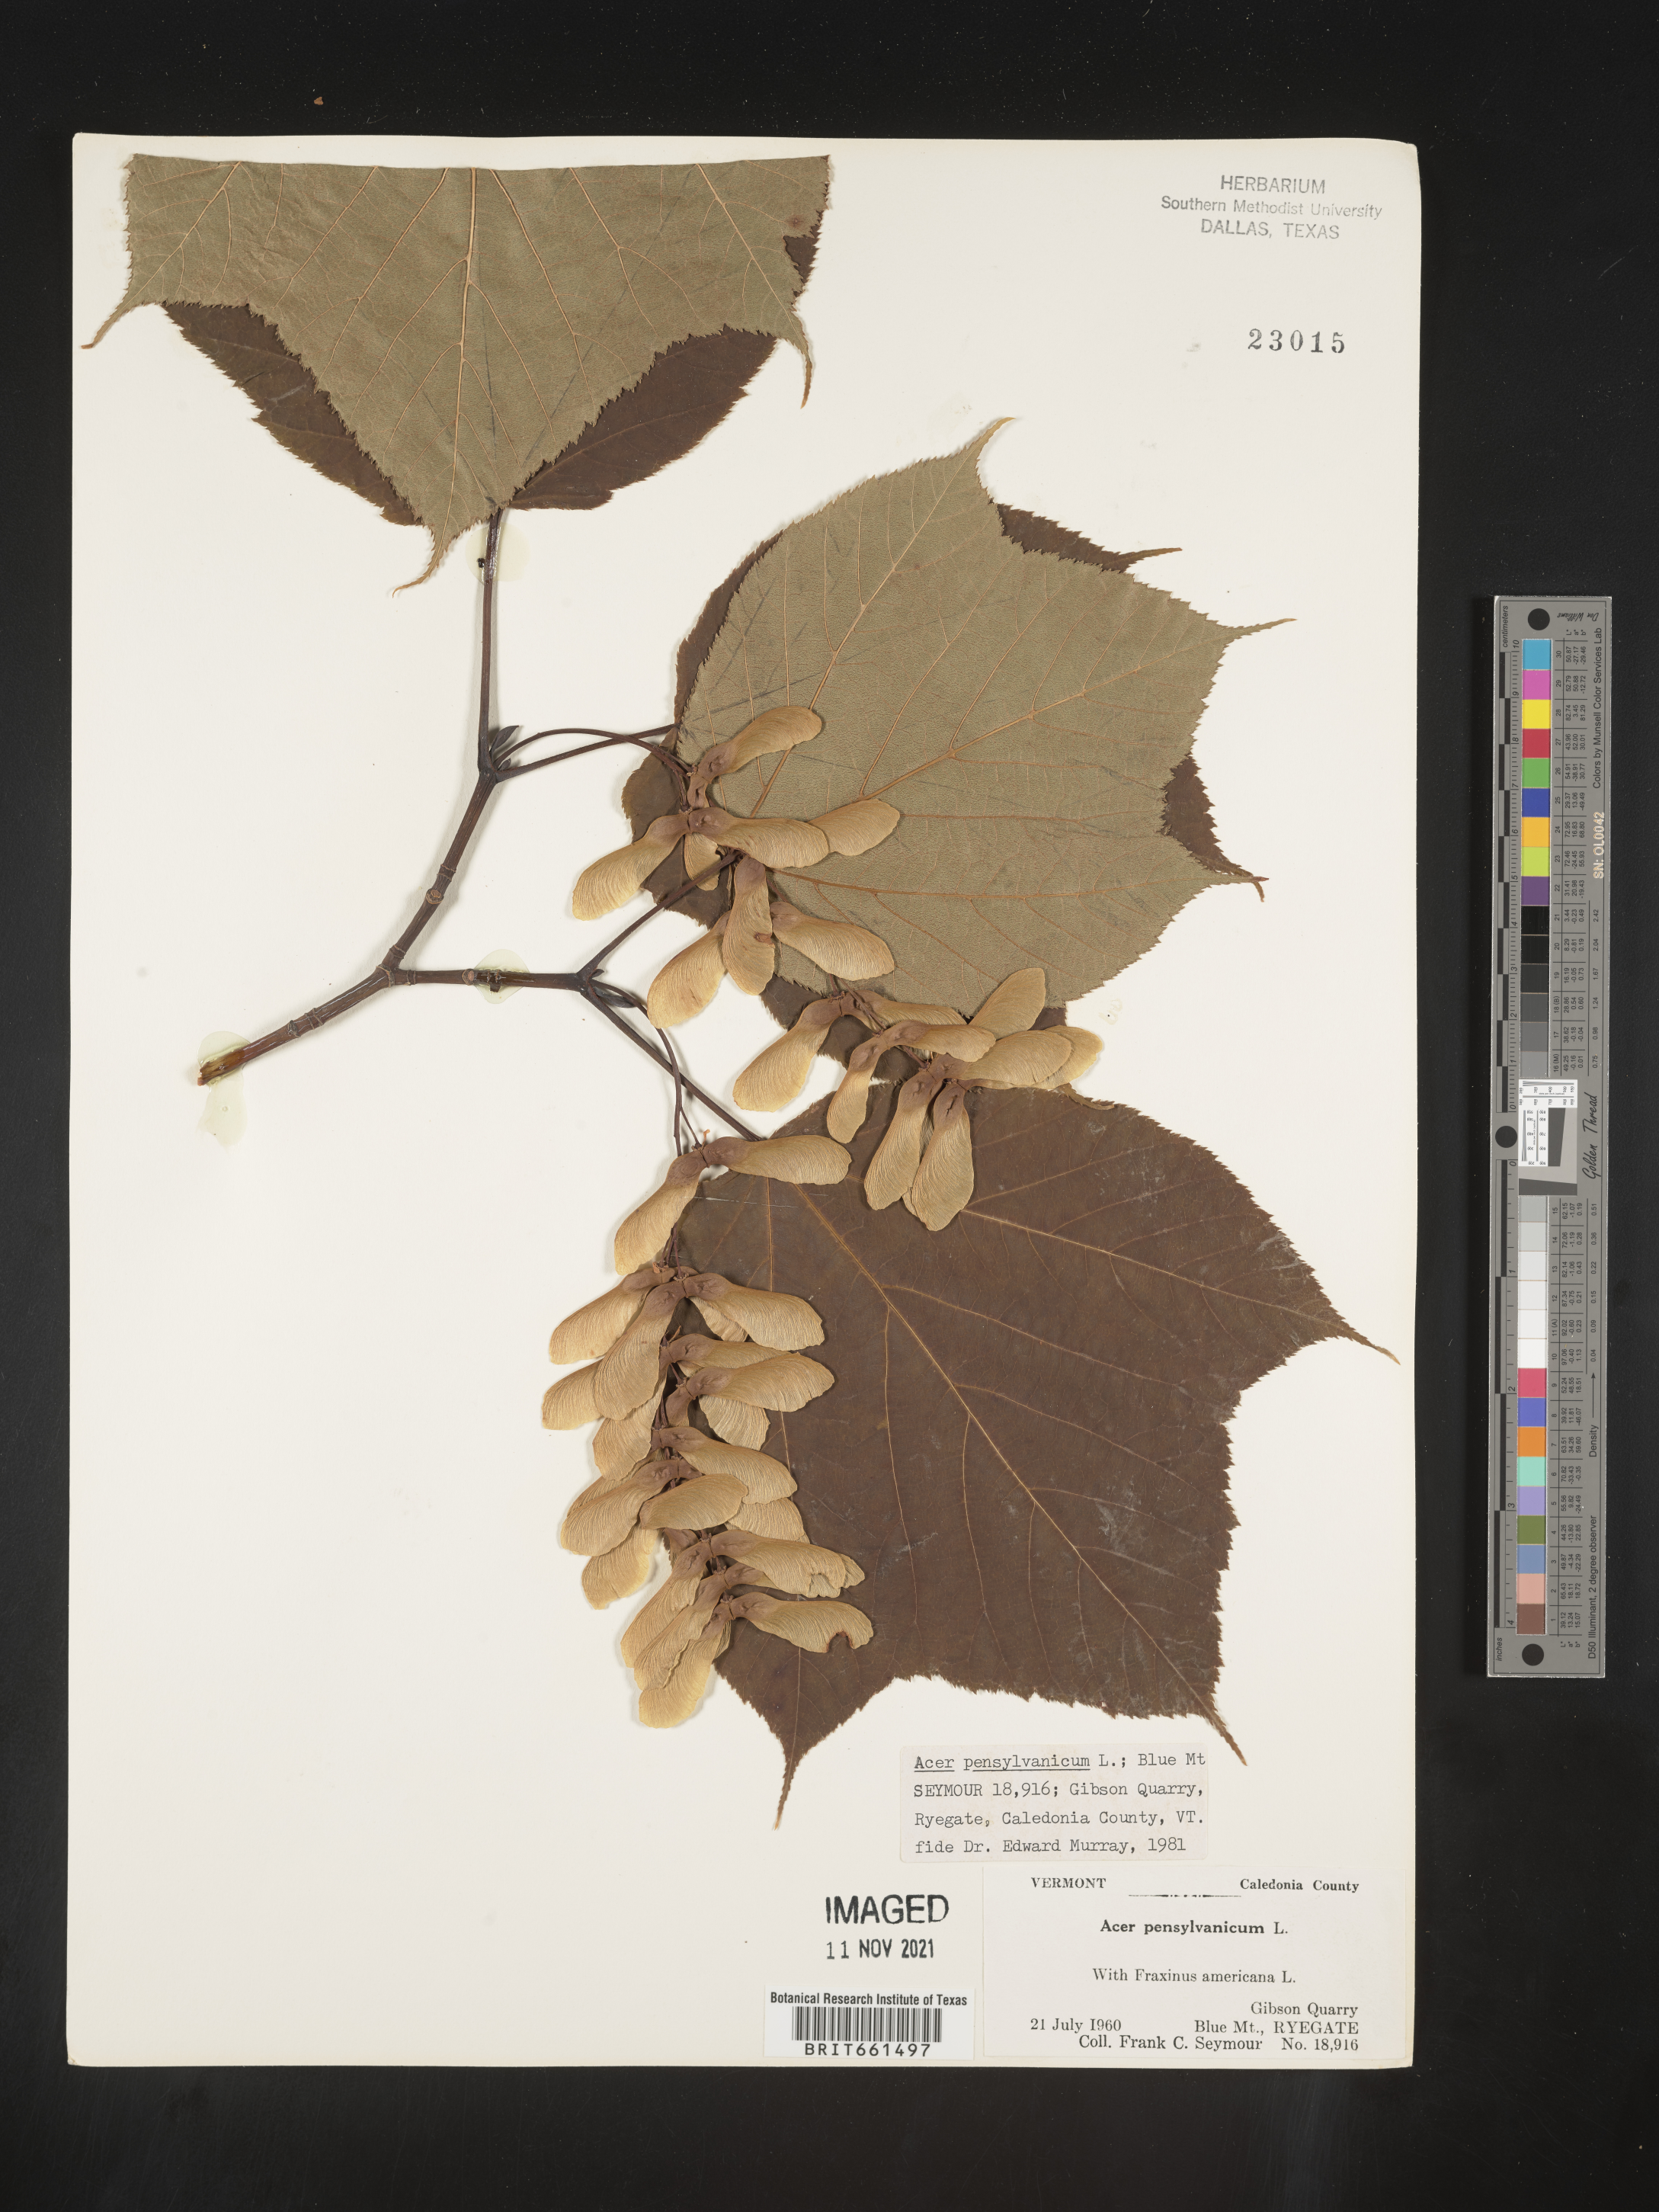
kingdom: Plantae
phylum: Tracheophyta
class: Magnoliopsida
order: Sapindales
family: Sapindaceae
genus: Acer
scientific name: Acer pensylvanicum
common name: Moosewood
